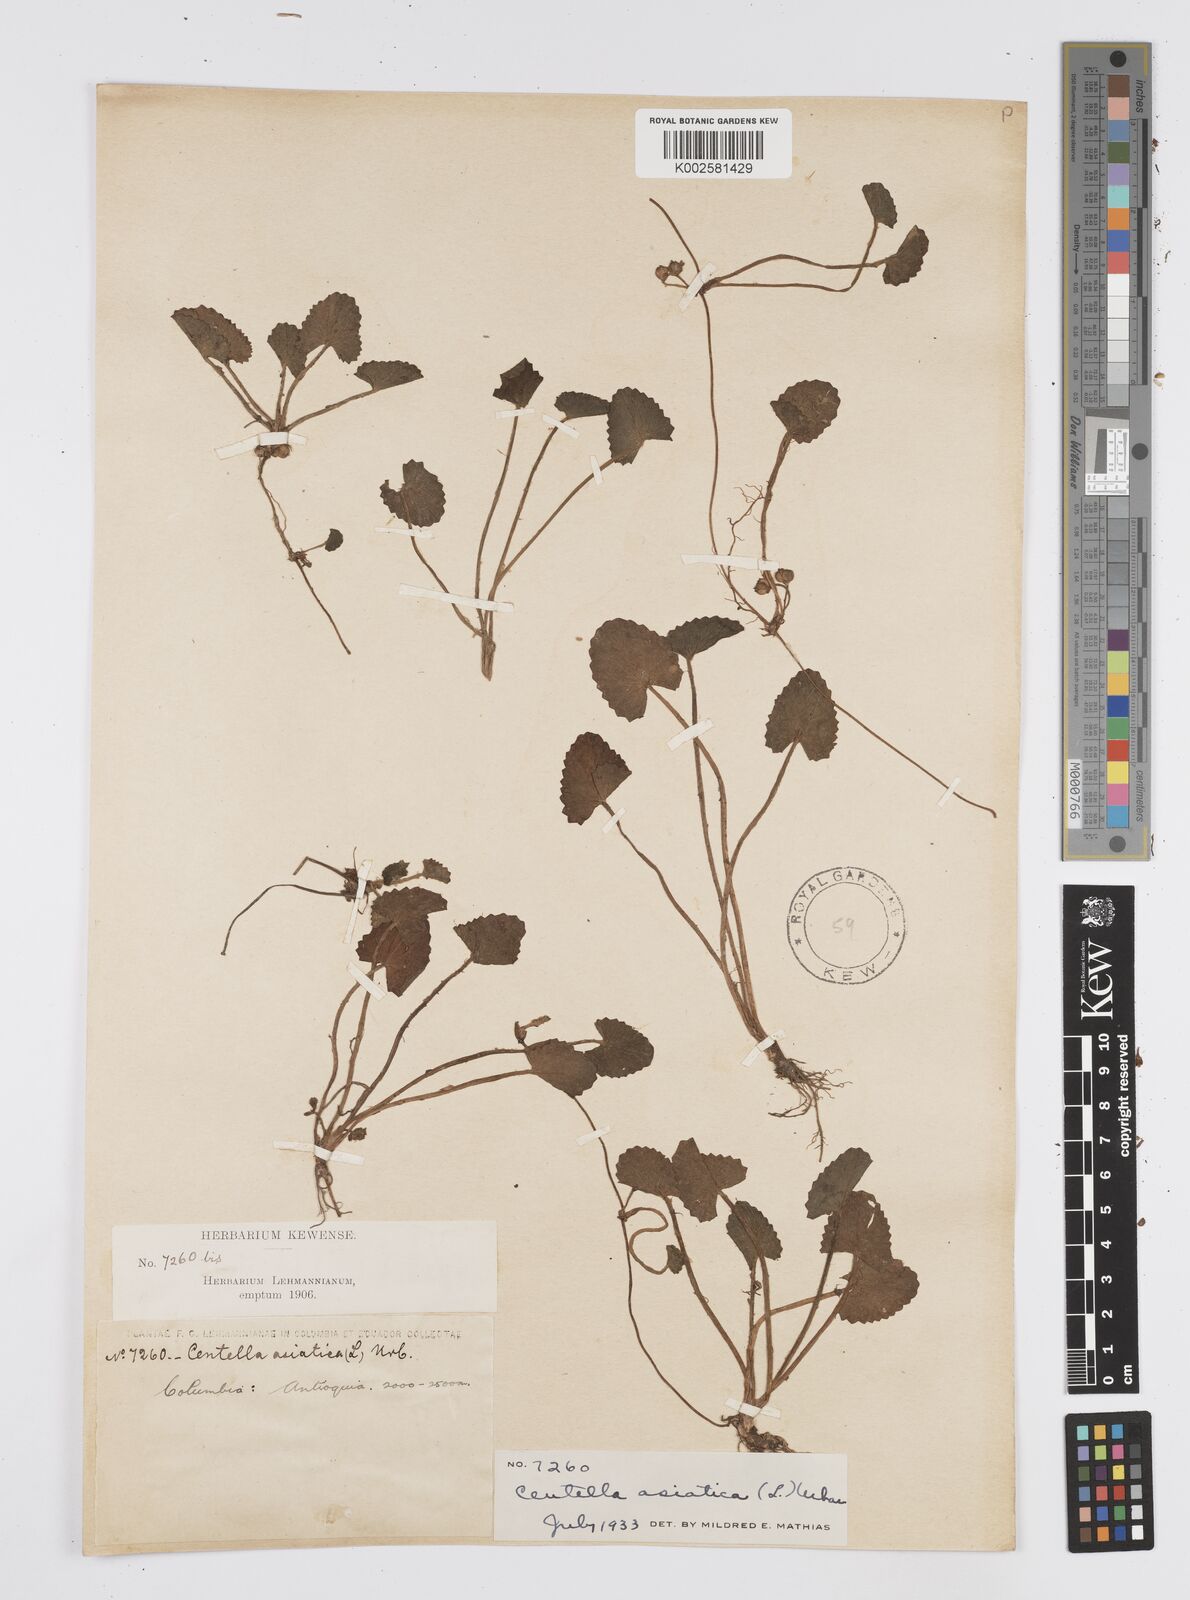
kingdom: Plantae
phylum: Tracheophyta
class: Magnoliopsida
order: Apiales
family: Apiaceae
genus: Centella
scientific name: Centella asiatica
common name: Spadeleaf
